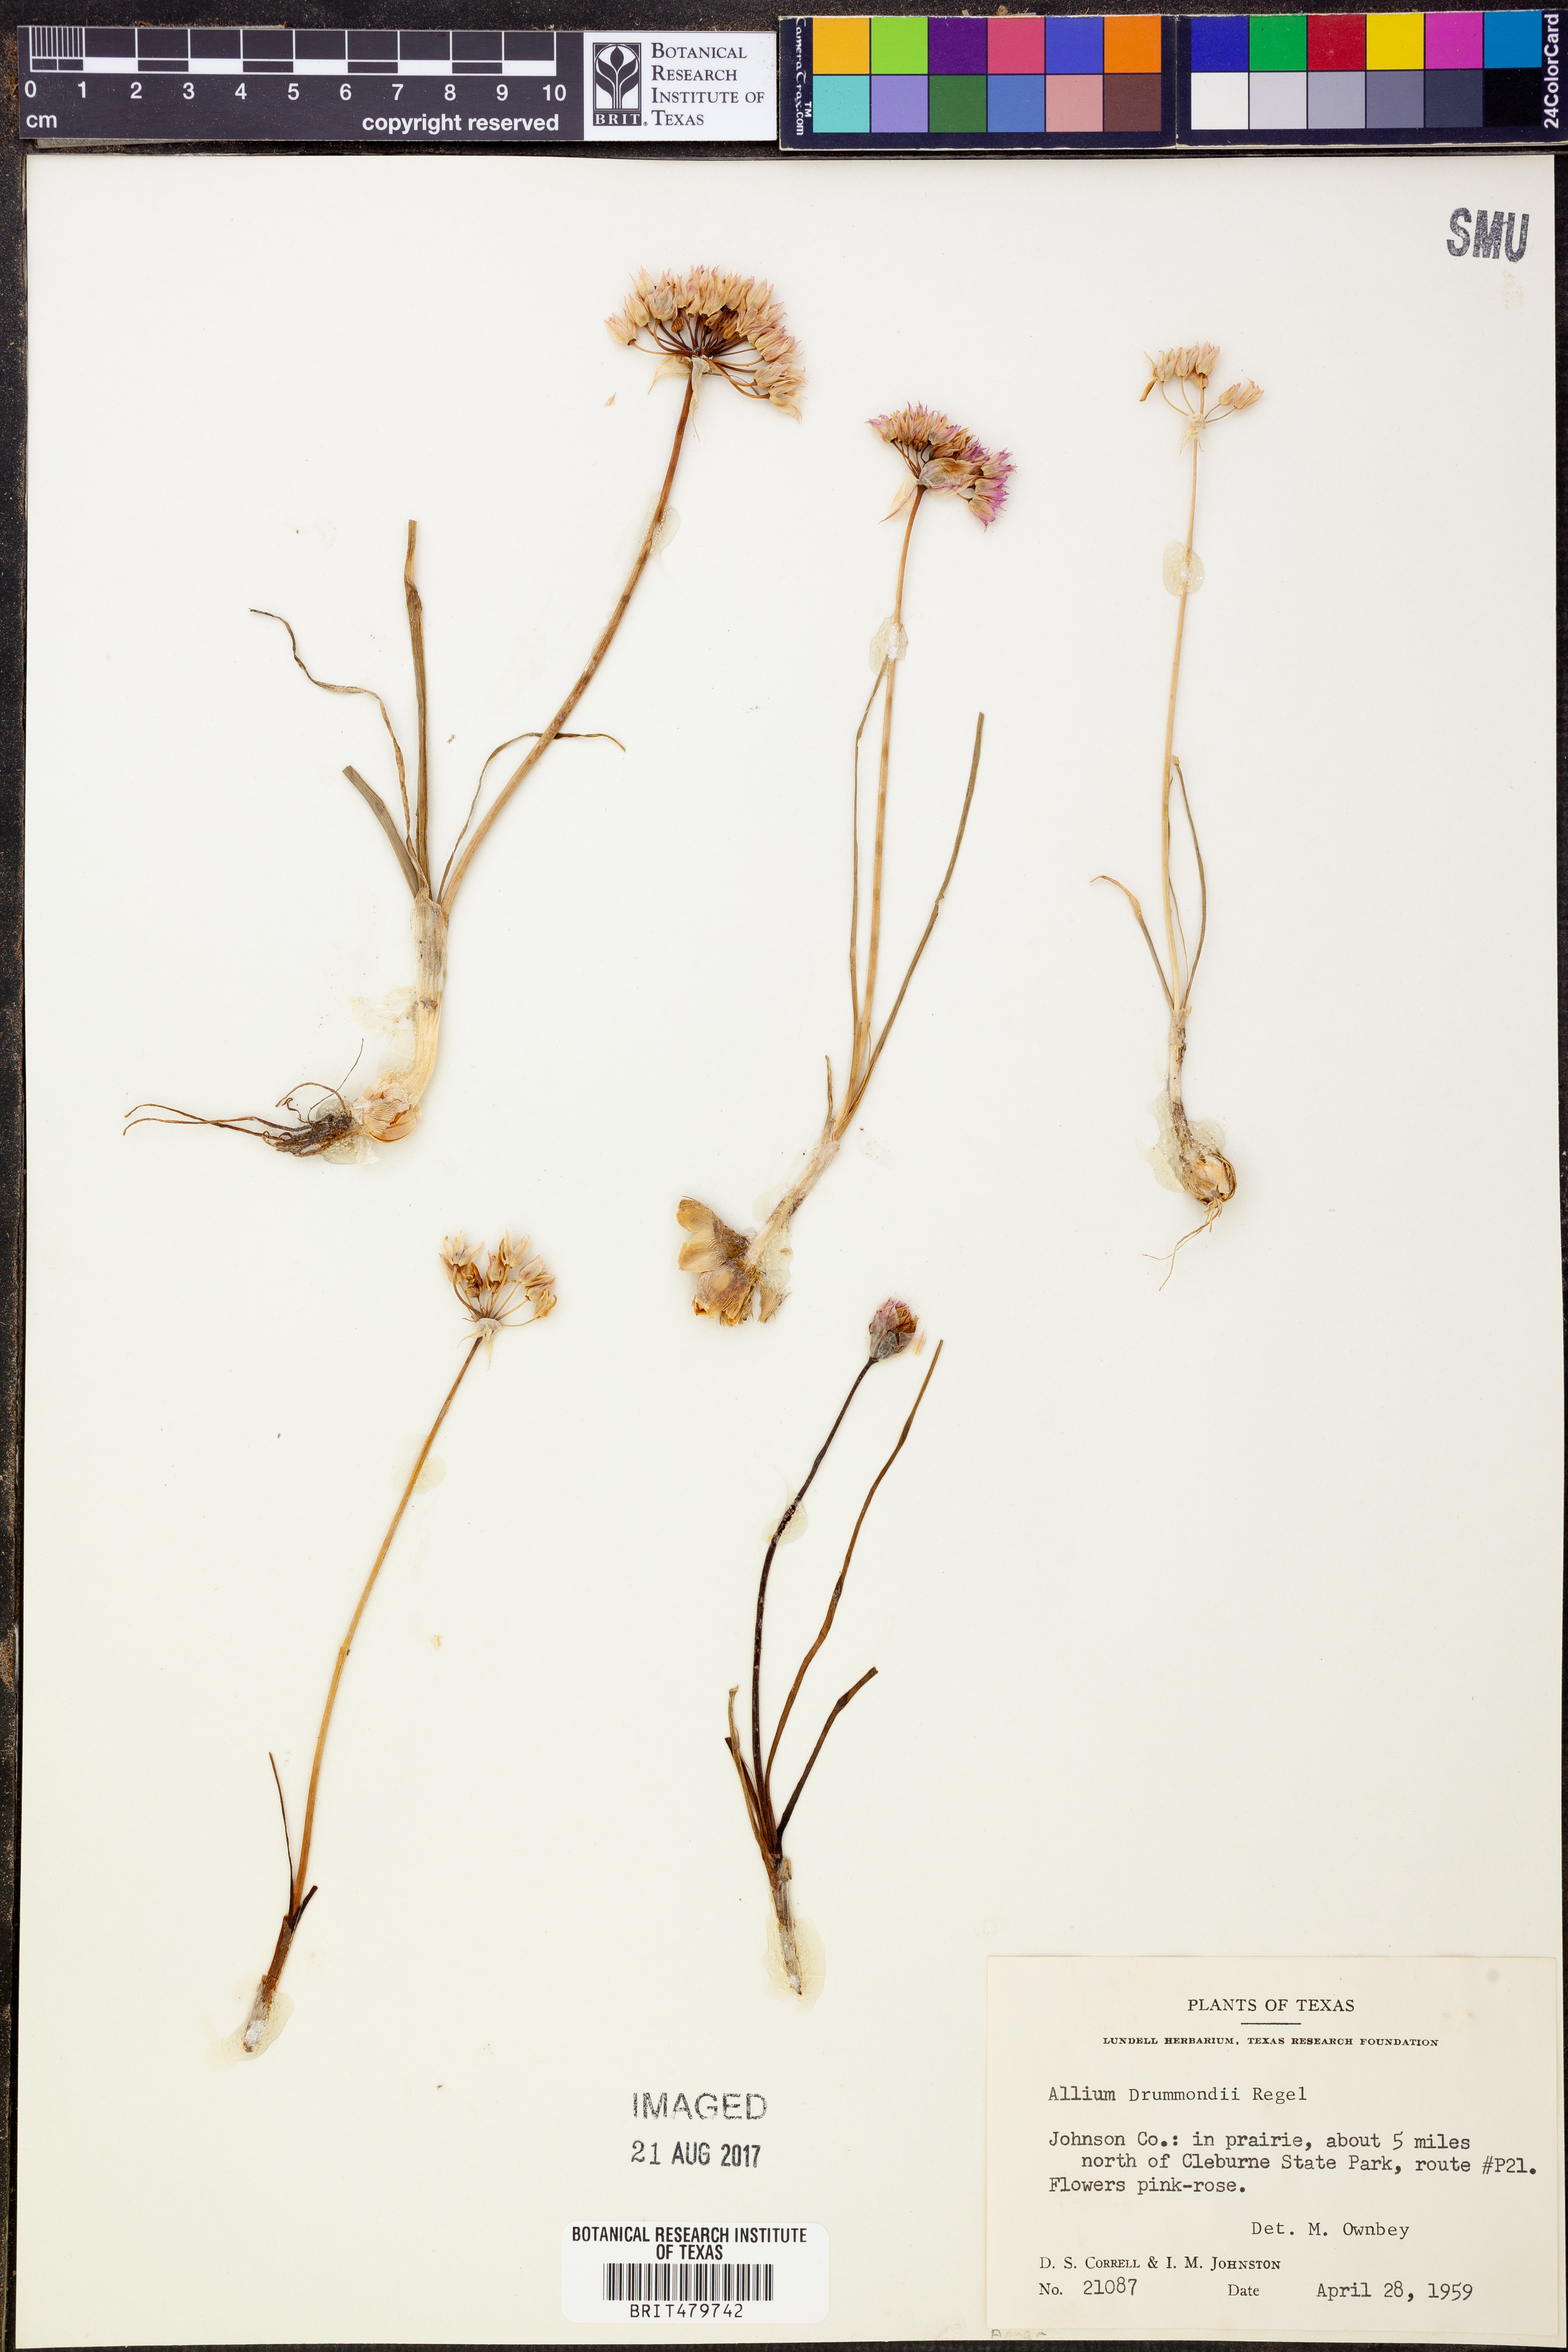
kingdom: Plantae
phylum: Tracheophyta
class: Liliopsida
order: Asparagales
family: Amaryllidaceae
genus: Allium
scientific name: Allium drummondii
